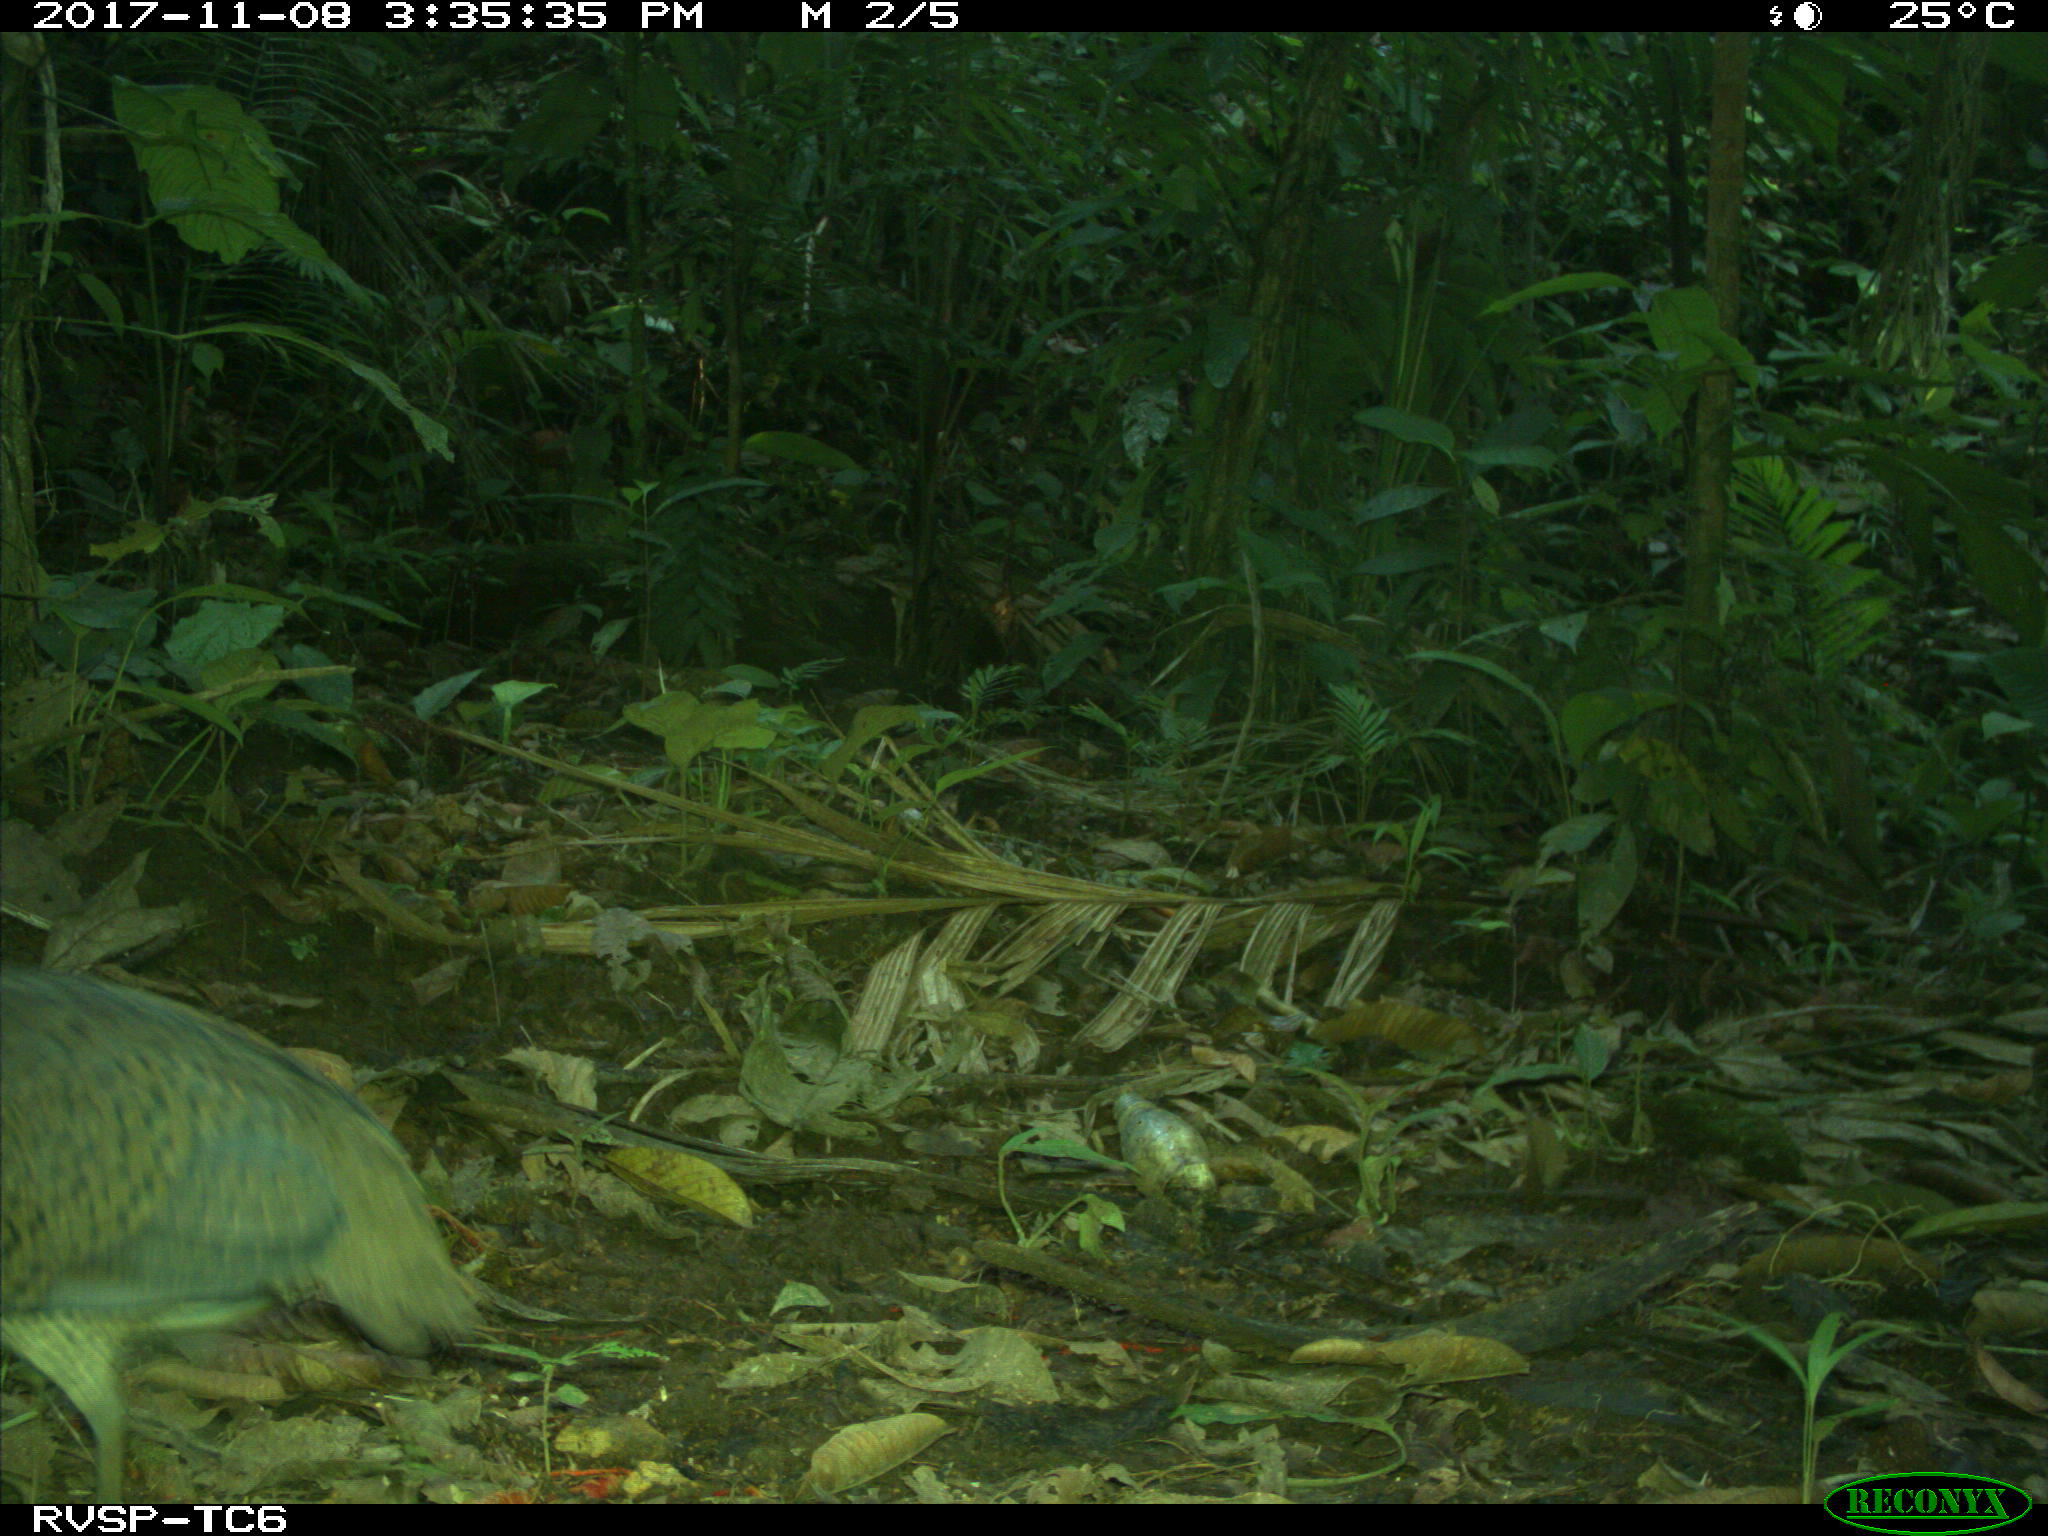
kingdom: Animalia
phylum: Chordata
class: Aves
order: Tinamiformes
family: Tinamidae
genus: Tinamus
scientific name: Tinamus major
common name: Great tinamou
